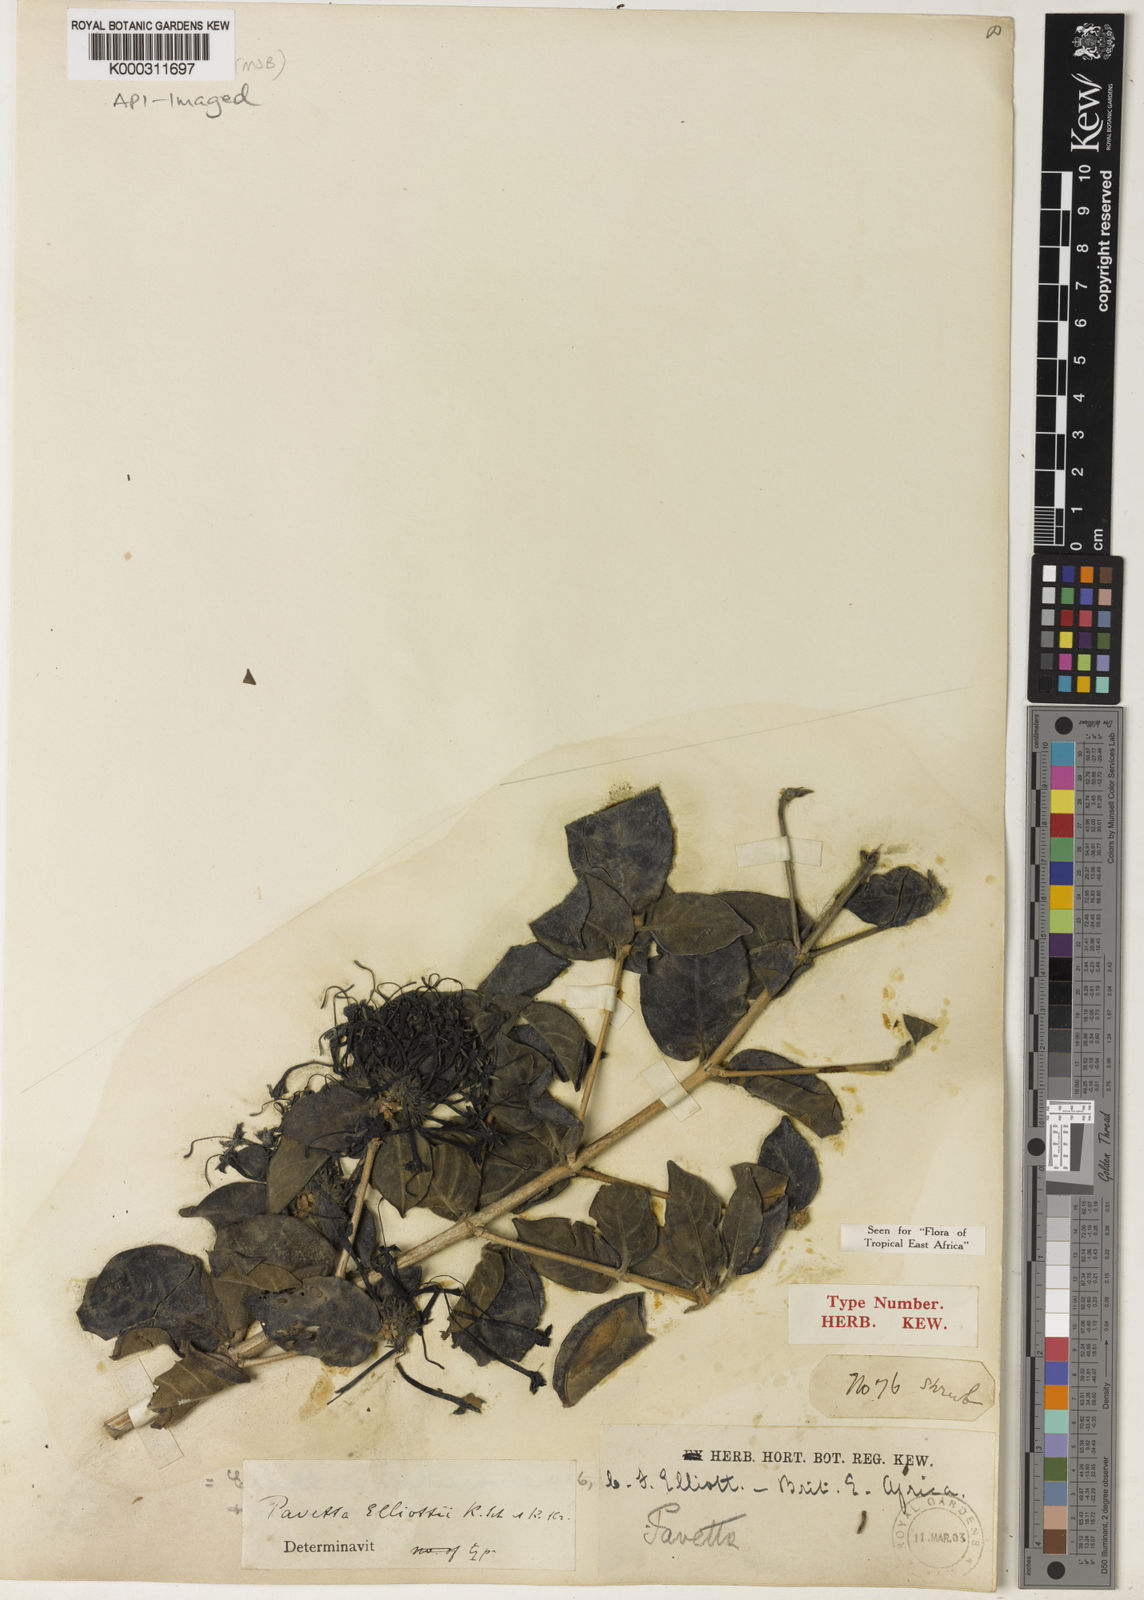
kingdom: Plantae
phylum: Tracheophyta
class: Magnoliopsida
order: Gentianales
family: Rubiaceae
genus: Pavetta
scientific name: Pavetta elliottii
